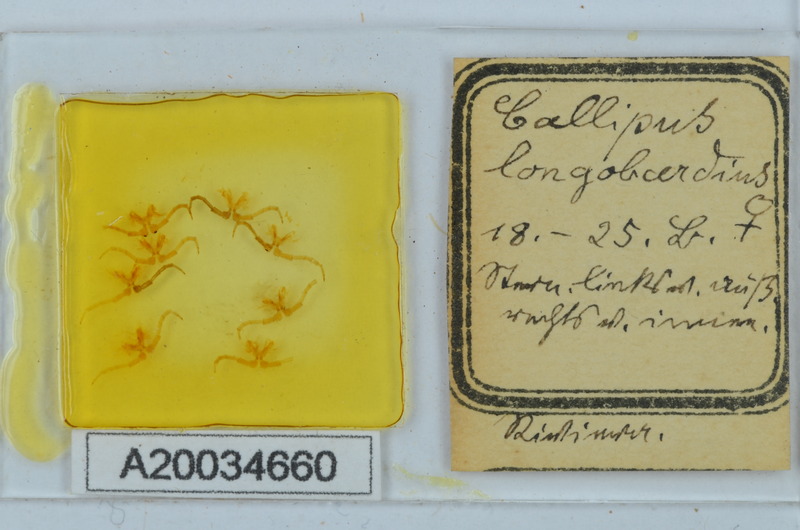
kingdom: Animalia
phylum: Arthropoda
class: Diplopoda
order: Callipodida
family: Callipodidae
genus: Callipus
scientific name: Callipus foetidissimus
